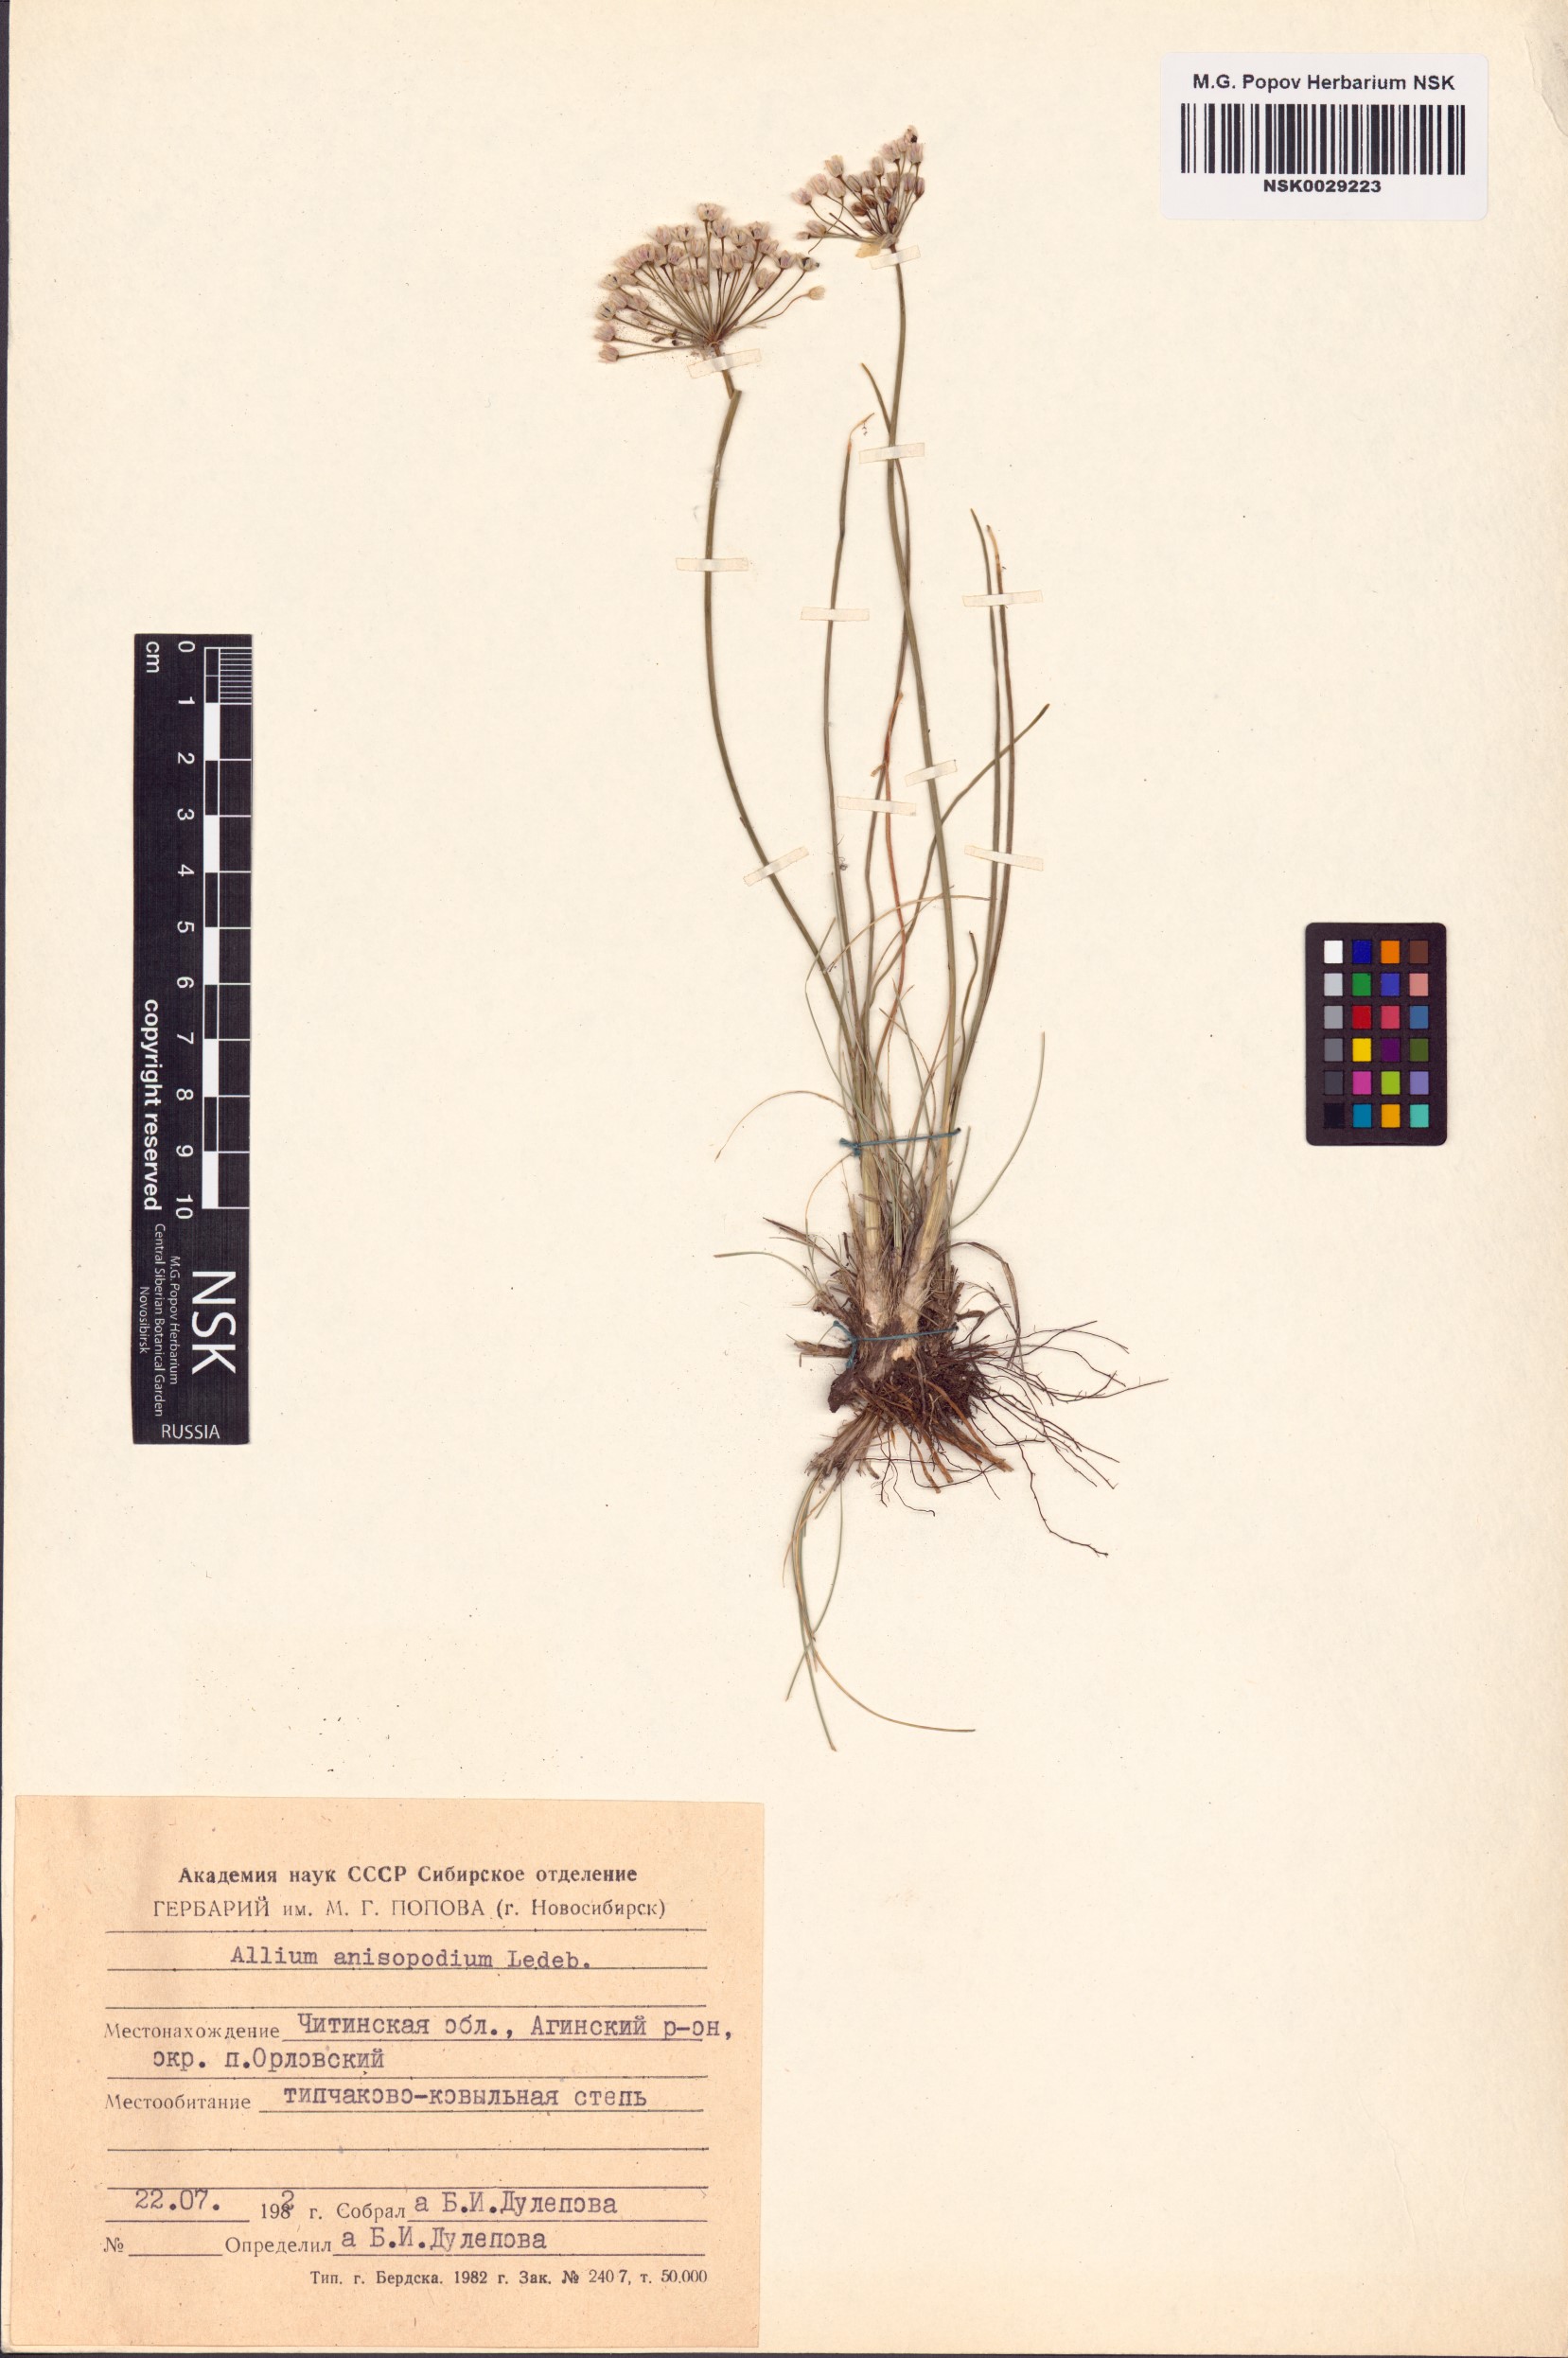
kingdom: Plantae
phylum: Tracheophyta
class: Liliopsida
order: Asparagales
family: Amaryllidaceae
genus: Allium
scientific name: Allium anisopodium
